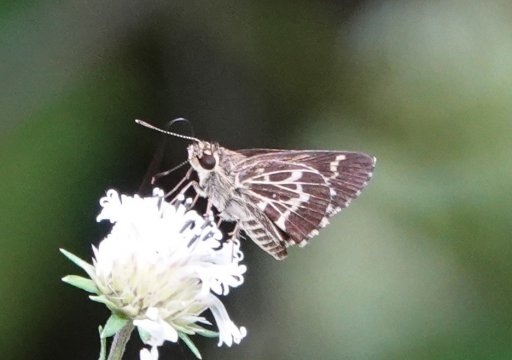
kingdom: Animalia
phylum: Arthropoda
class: Insecta
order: Lepidoptera
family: Hesperiidae
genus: Mastor
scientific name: Mastor aesculapius
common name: Lace-winged Roadside-Skipper
